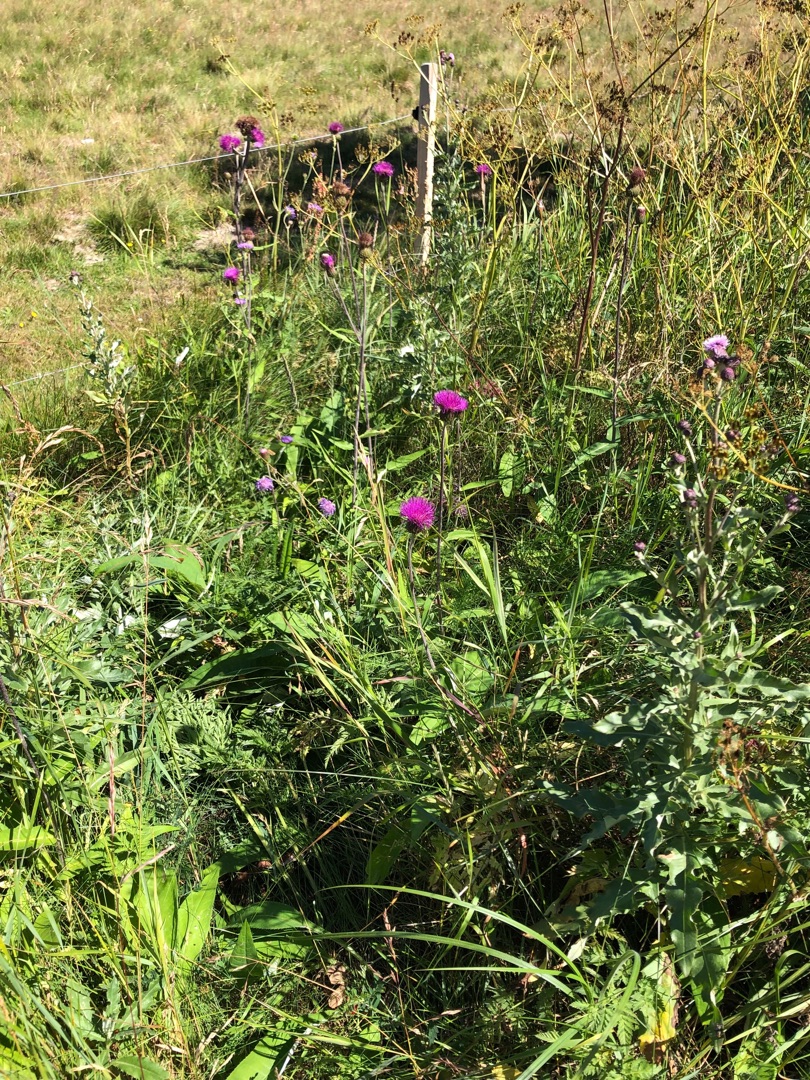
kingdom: Plantae
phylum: Tracheophyta
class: Magnoliopsida
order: Asterales
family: Asteraceae
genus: Cirsium
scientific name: Cirsium heterophyllum
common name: Forskelligbladet tidsel
